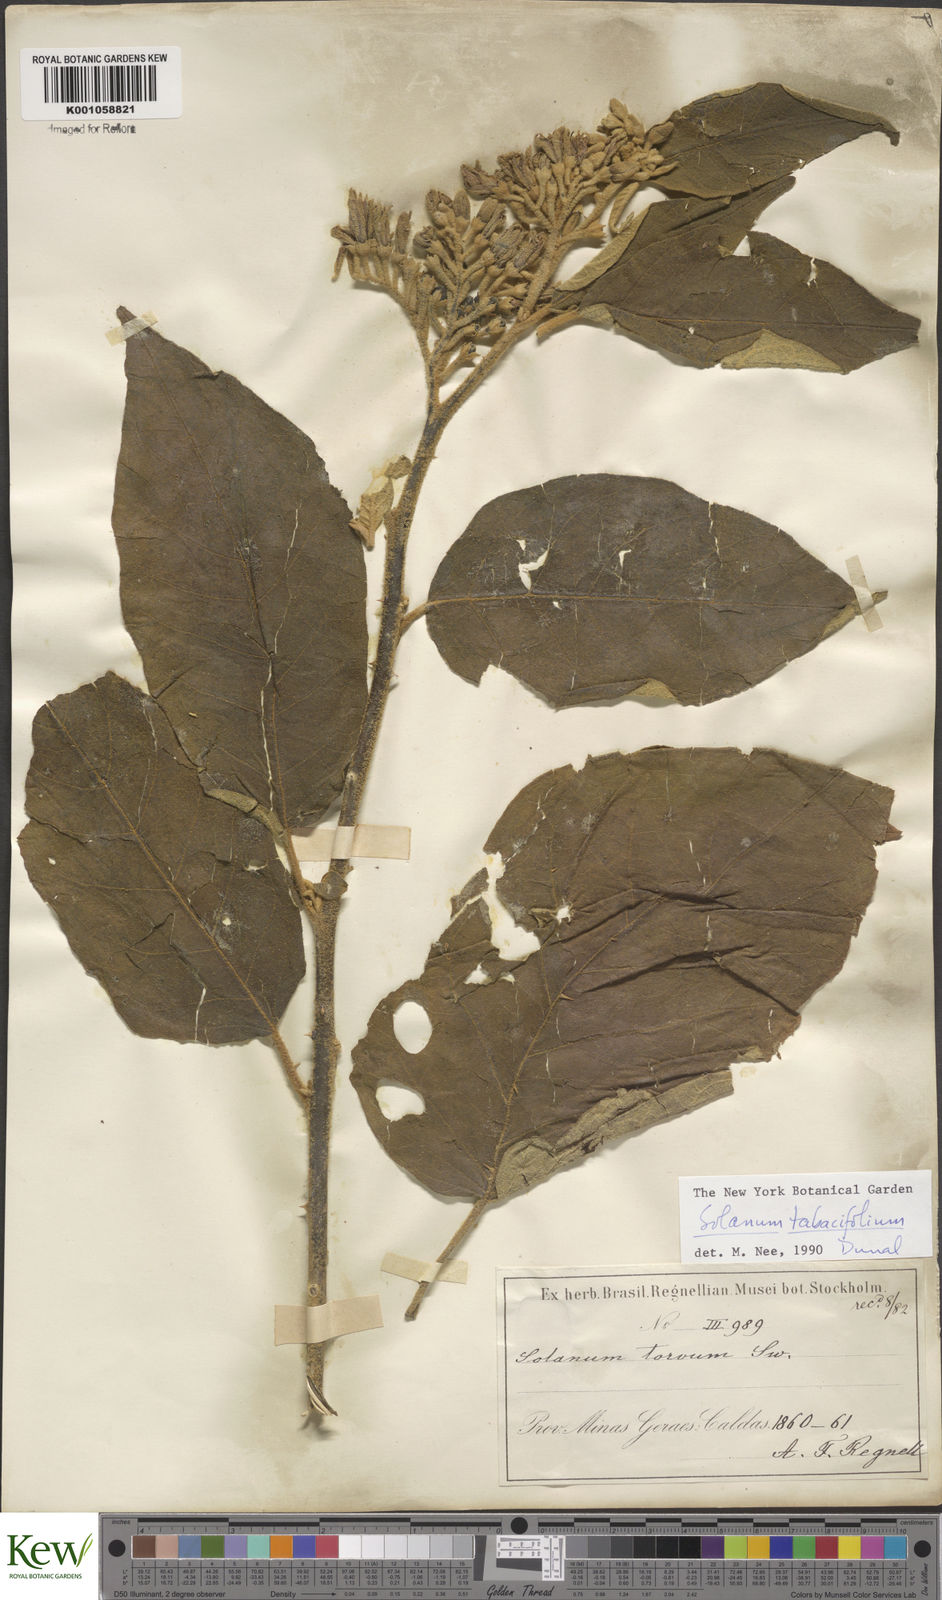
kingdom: Plantae
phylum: Tracheophyta
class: Magnoliopsida
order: Solanales
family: Solanaceae
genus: Solanum
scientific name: Solanum scuticum
